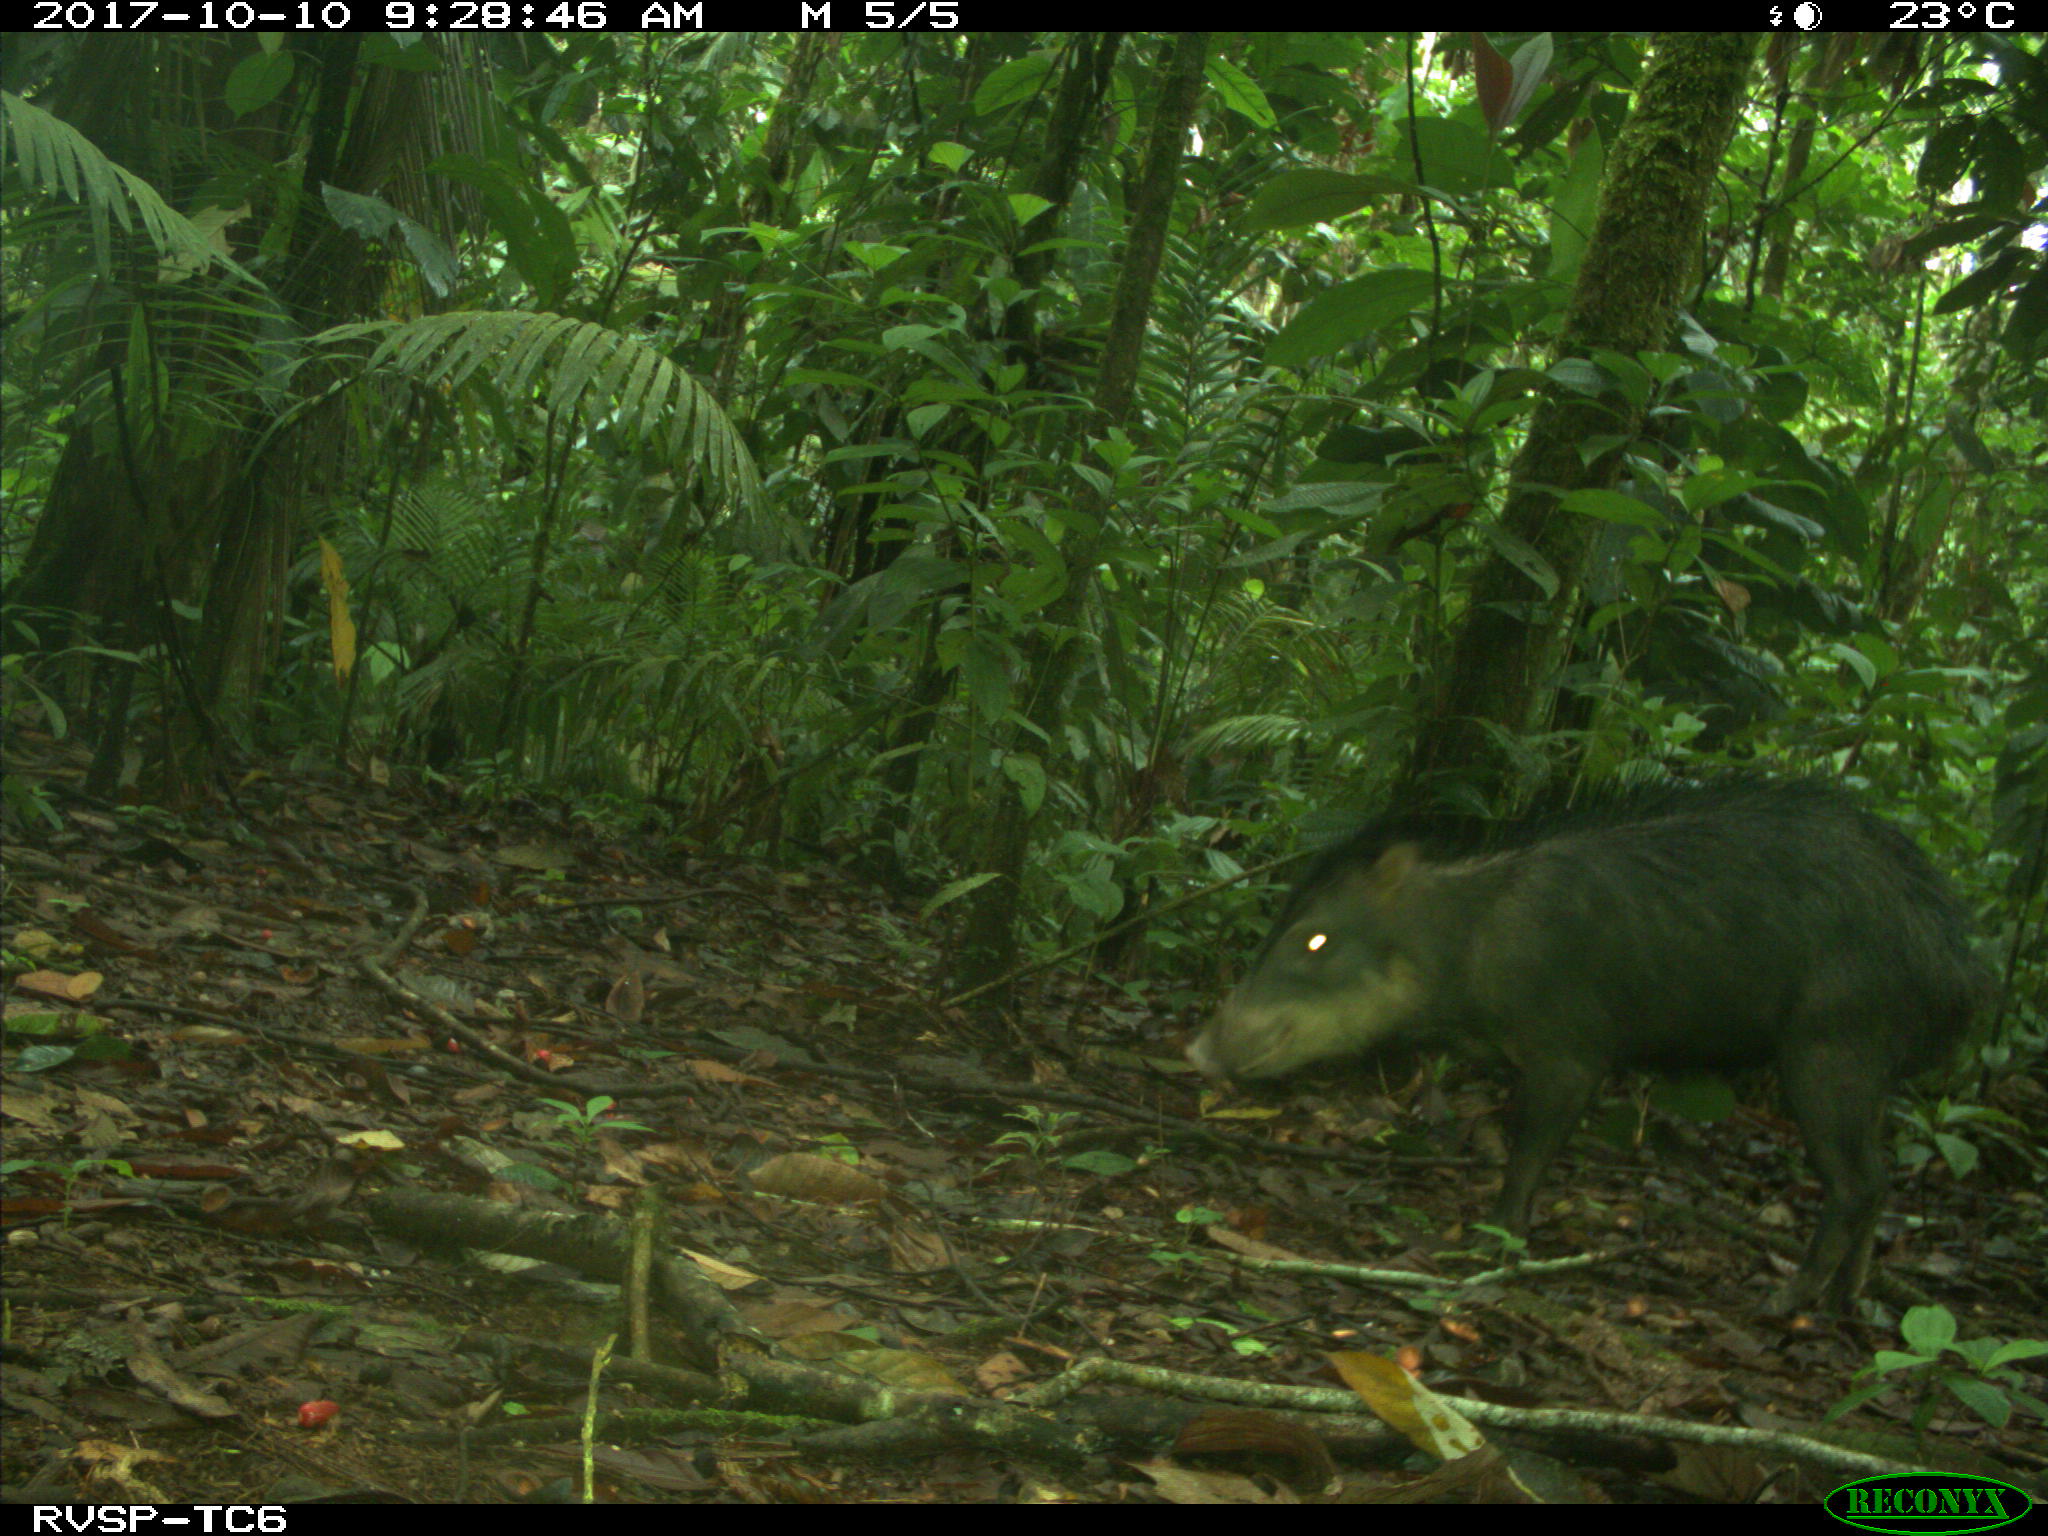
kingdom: Animalia
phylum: Chordata
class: Mammalia
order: Artiodactyla
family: Tayassuidae
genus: Tayassu
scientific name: Tayassu pecari
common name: White-lipped peccary
